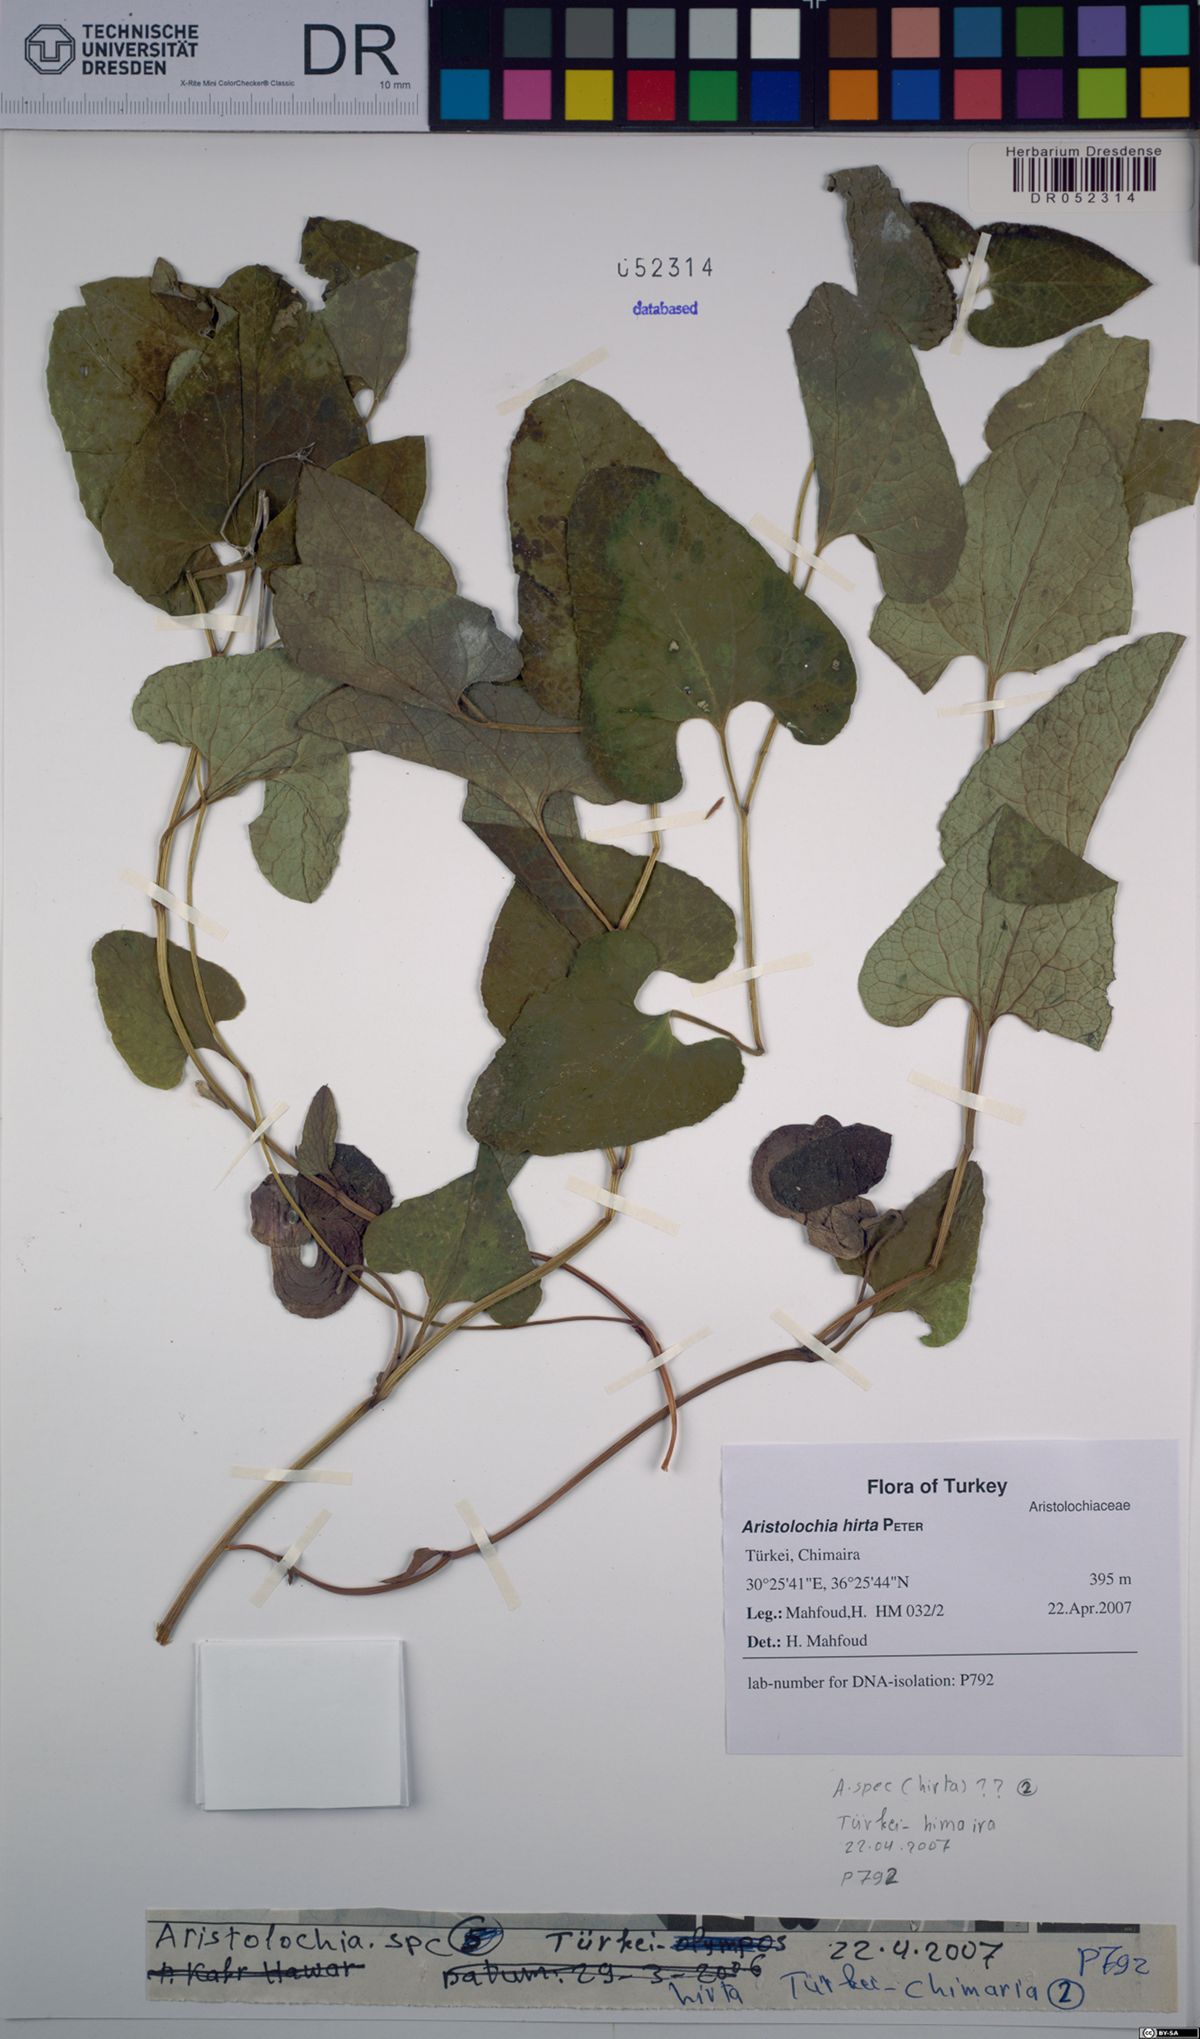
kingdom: Plantae
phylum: Tracheophyta
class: Magnoliopsida
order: Piperales
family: Aristolochiaceae
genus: Aristolochia
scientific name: Aristolochia hockii
